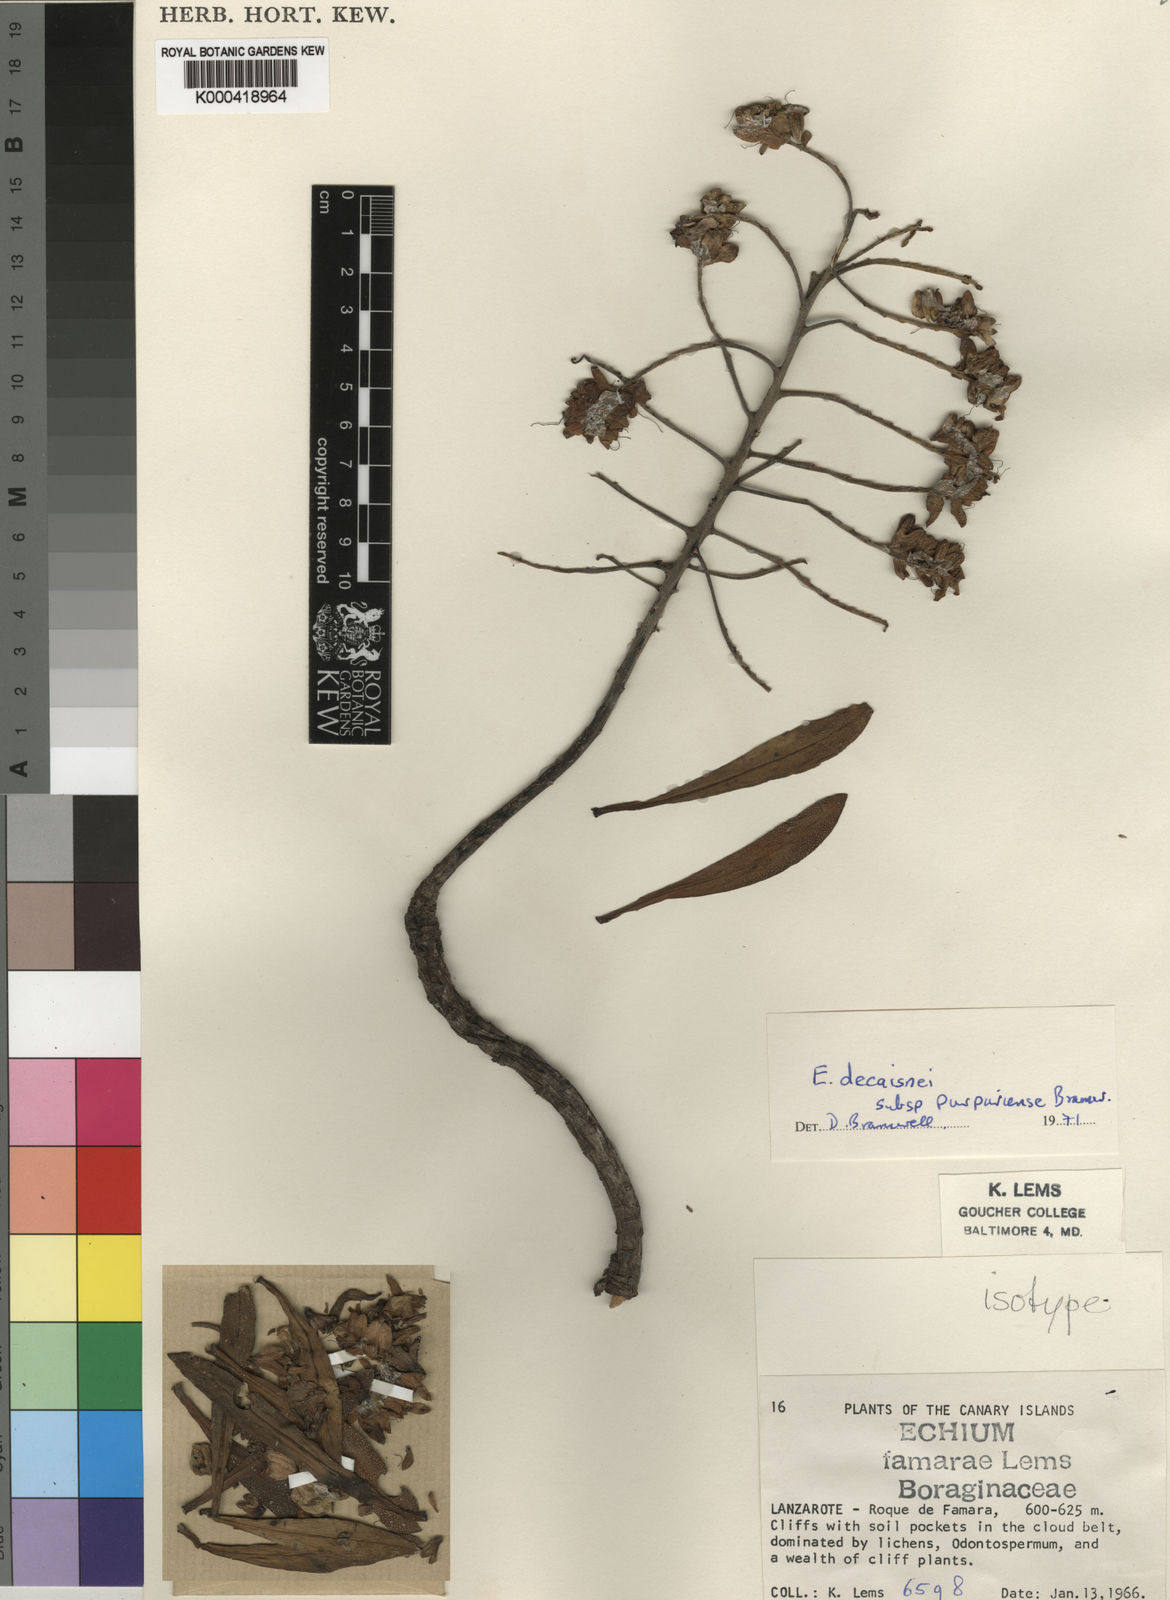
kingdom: Plantae
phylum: Tracheophyta
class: Magnoliopsida
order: Boraginales
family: Boraginaceae
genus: Echium
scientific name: Echium famarae
